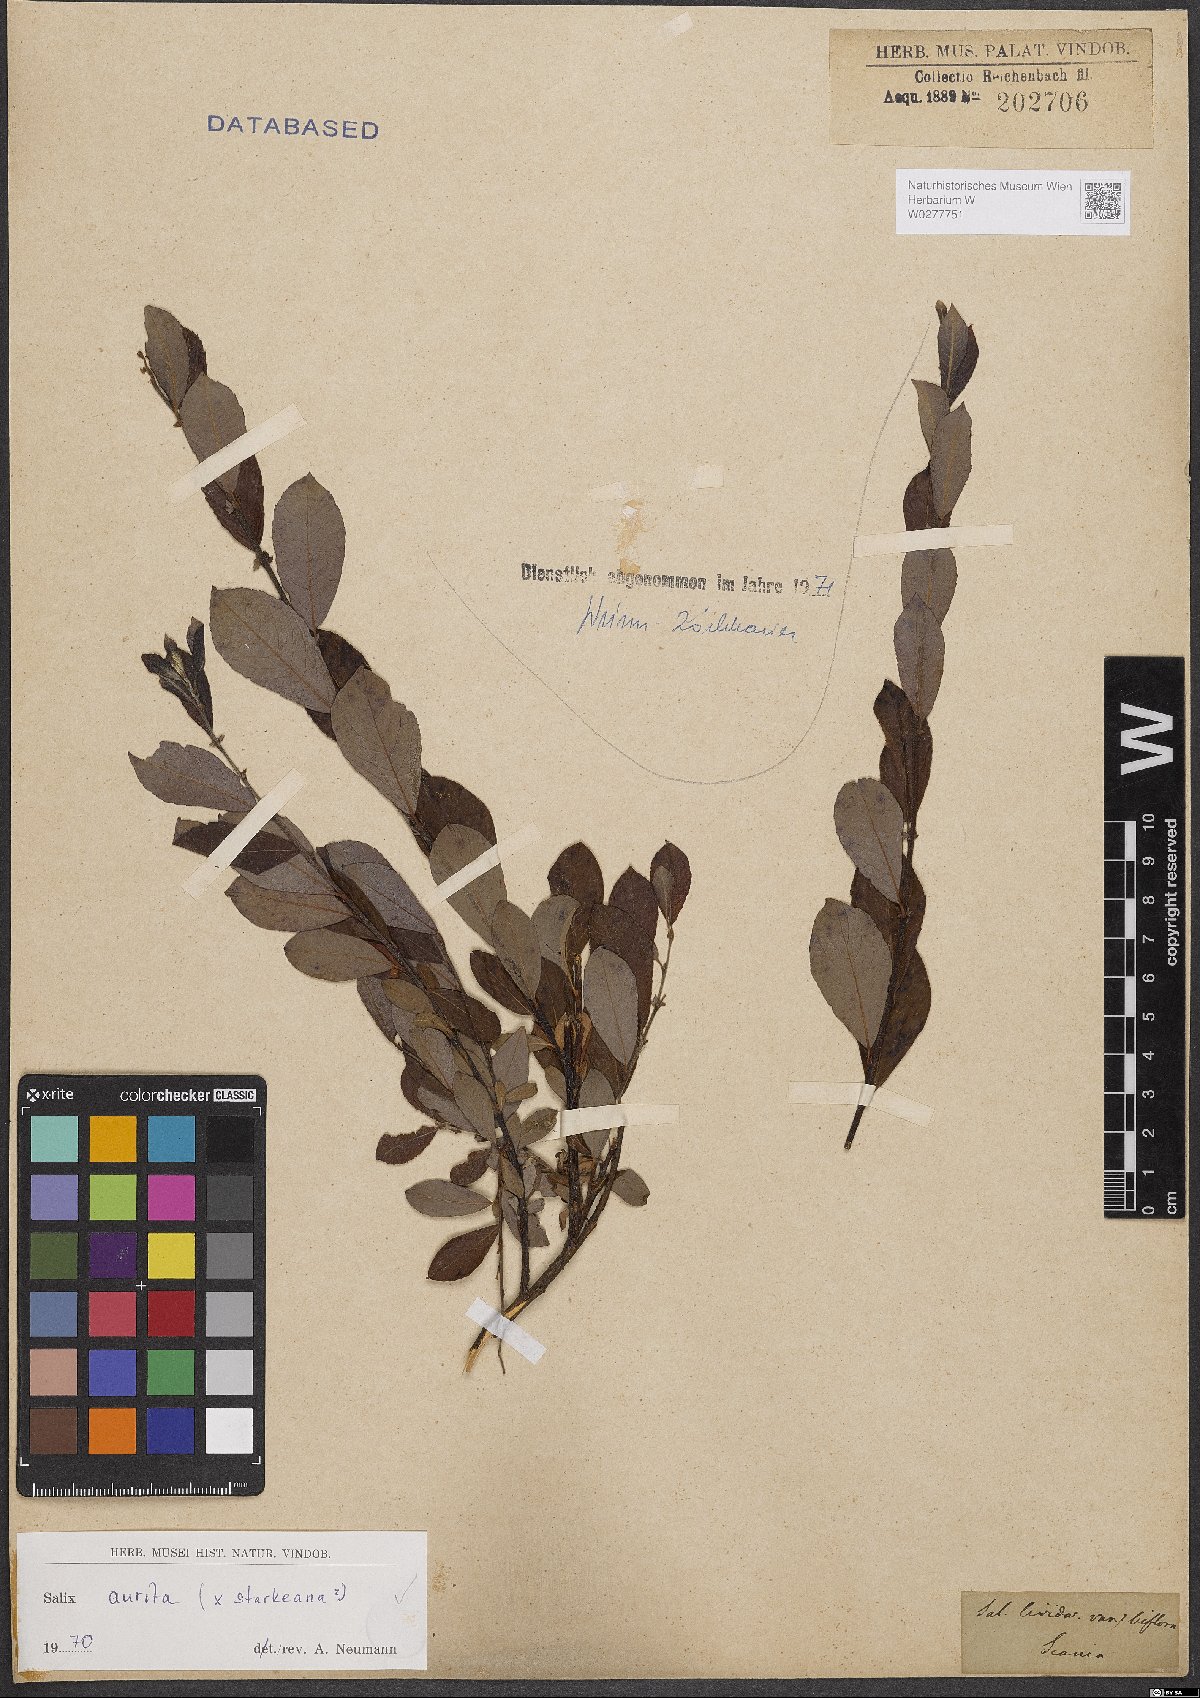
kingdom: Plantae
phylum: Tracheophyta
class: Magnoliopsida
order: Malpighiales
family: Salicaceae
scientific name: Salicaceae
